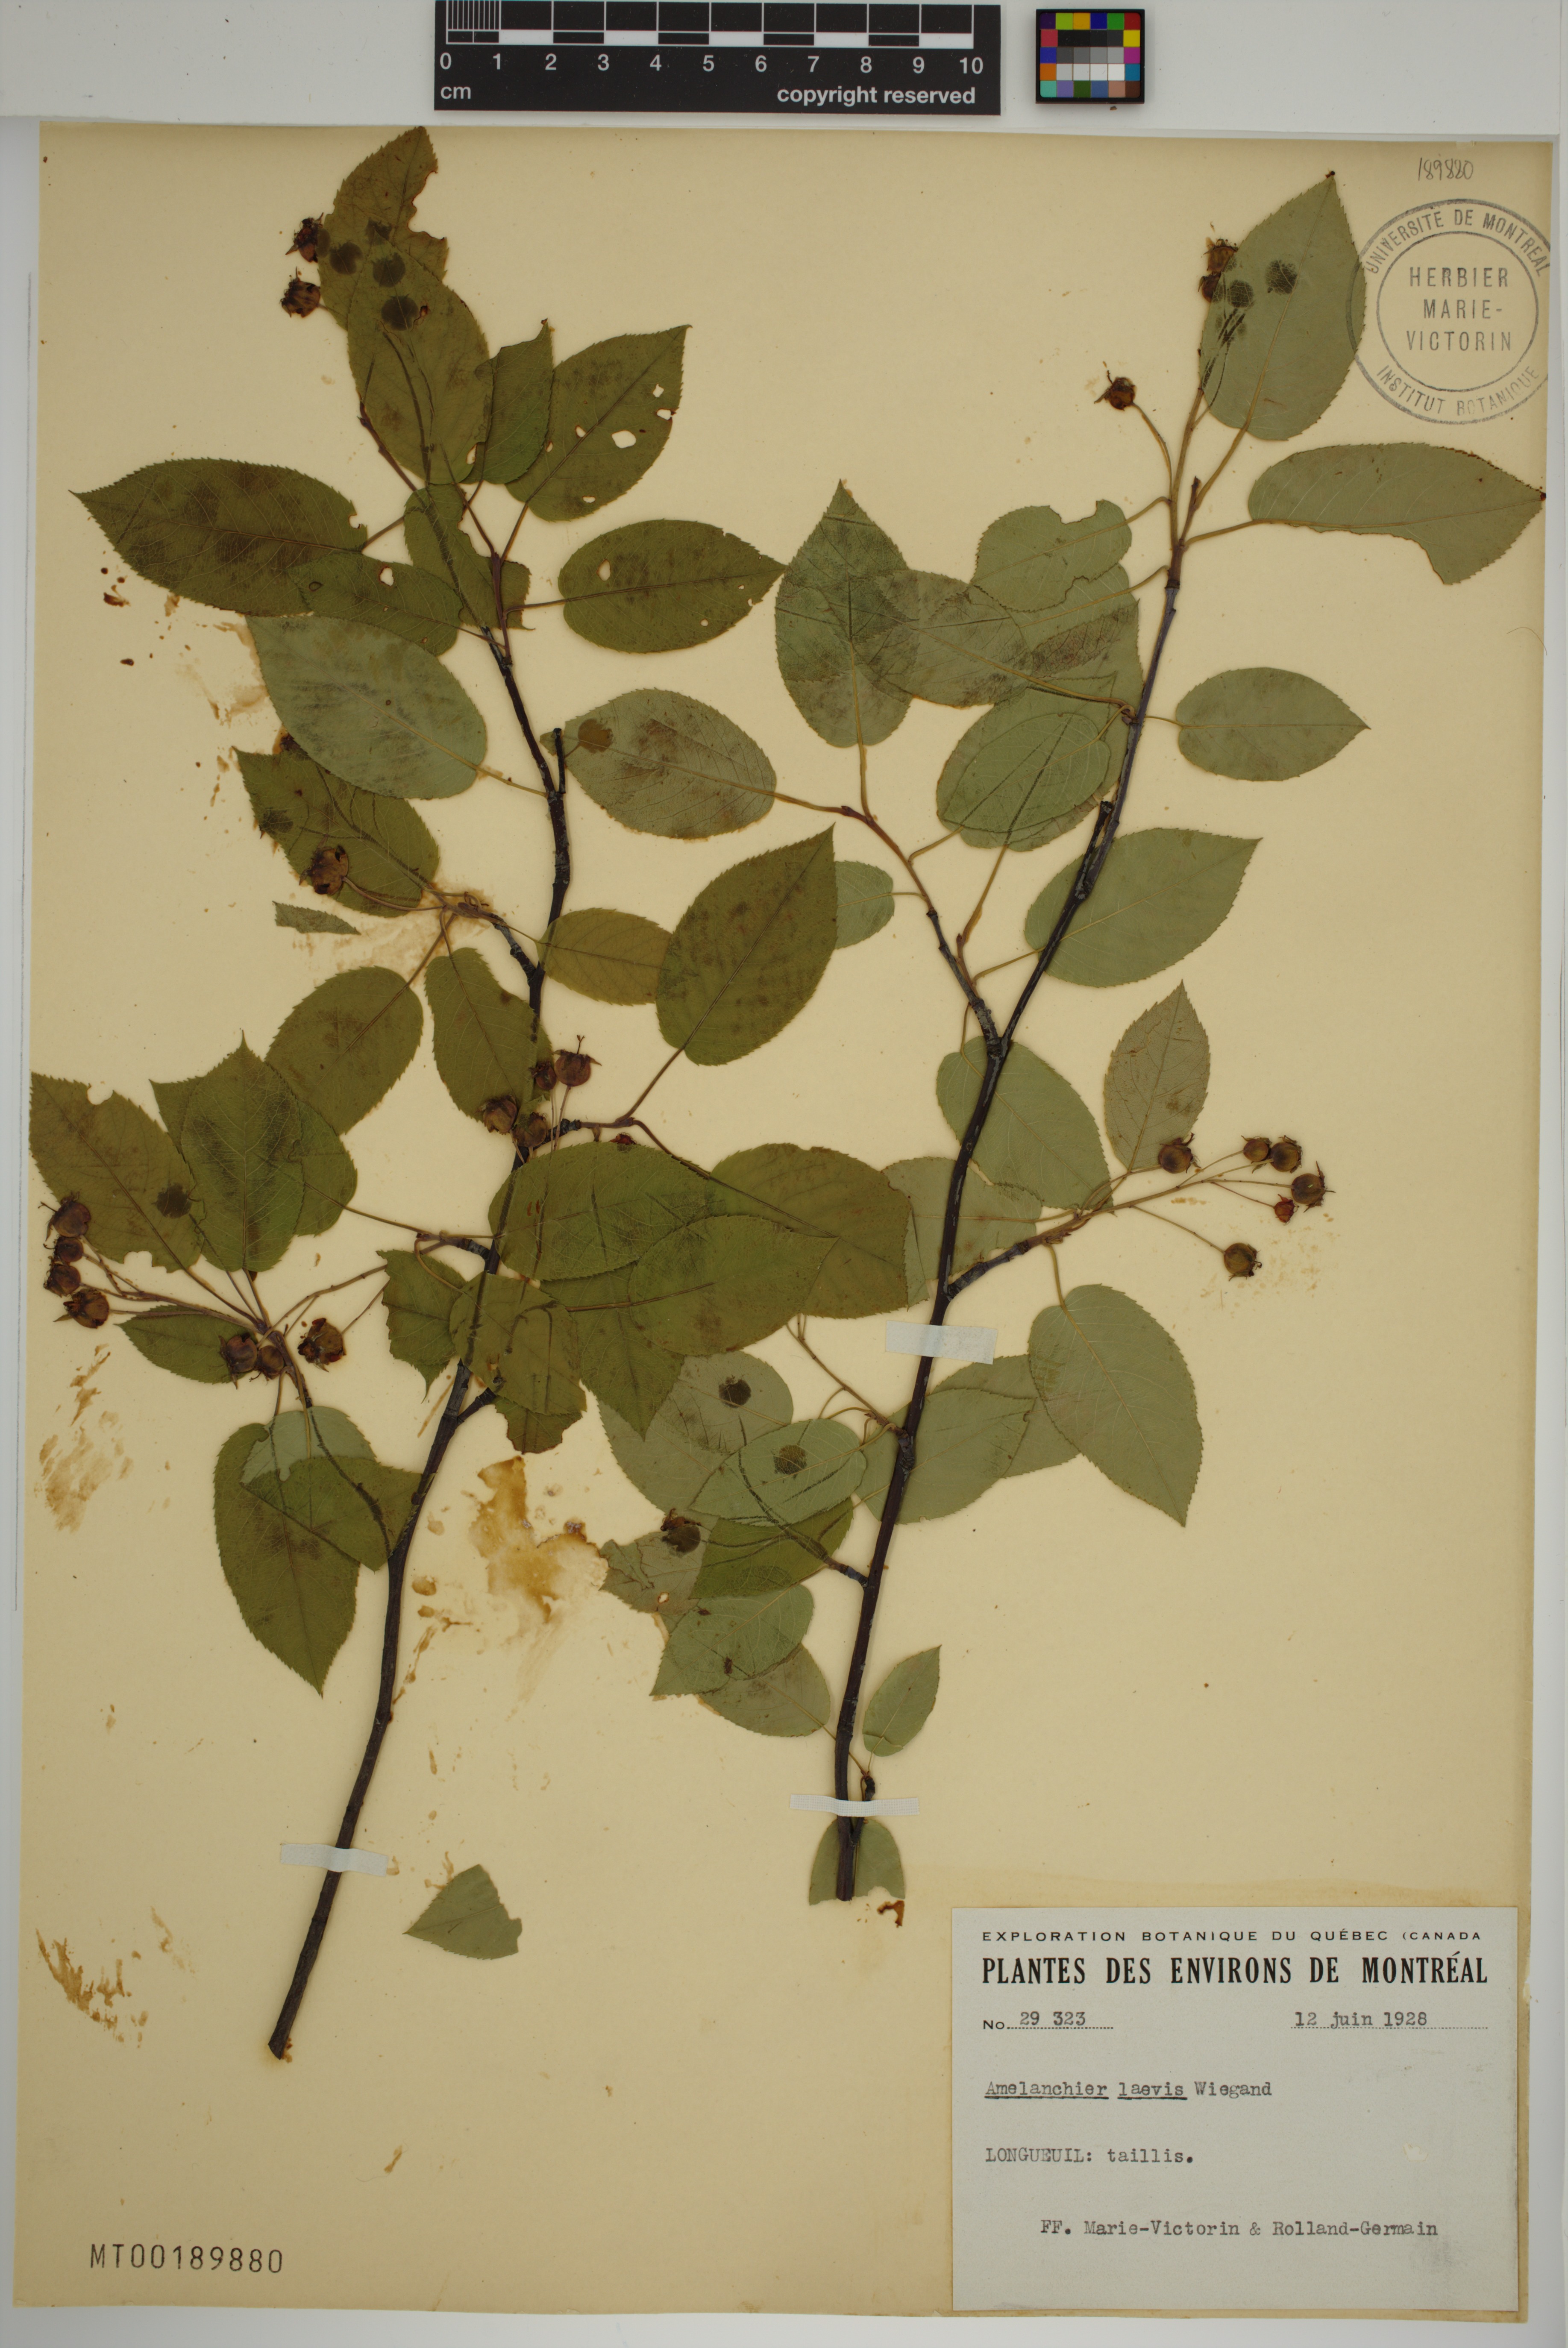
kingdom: Plantae
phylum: Tracheophyta
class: Magnoliopsida
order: Rosales
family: Rosaceae
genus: Amelanchier
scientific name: Amelanchier laevis
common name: Allegheny serviceberry
